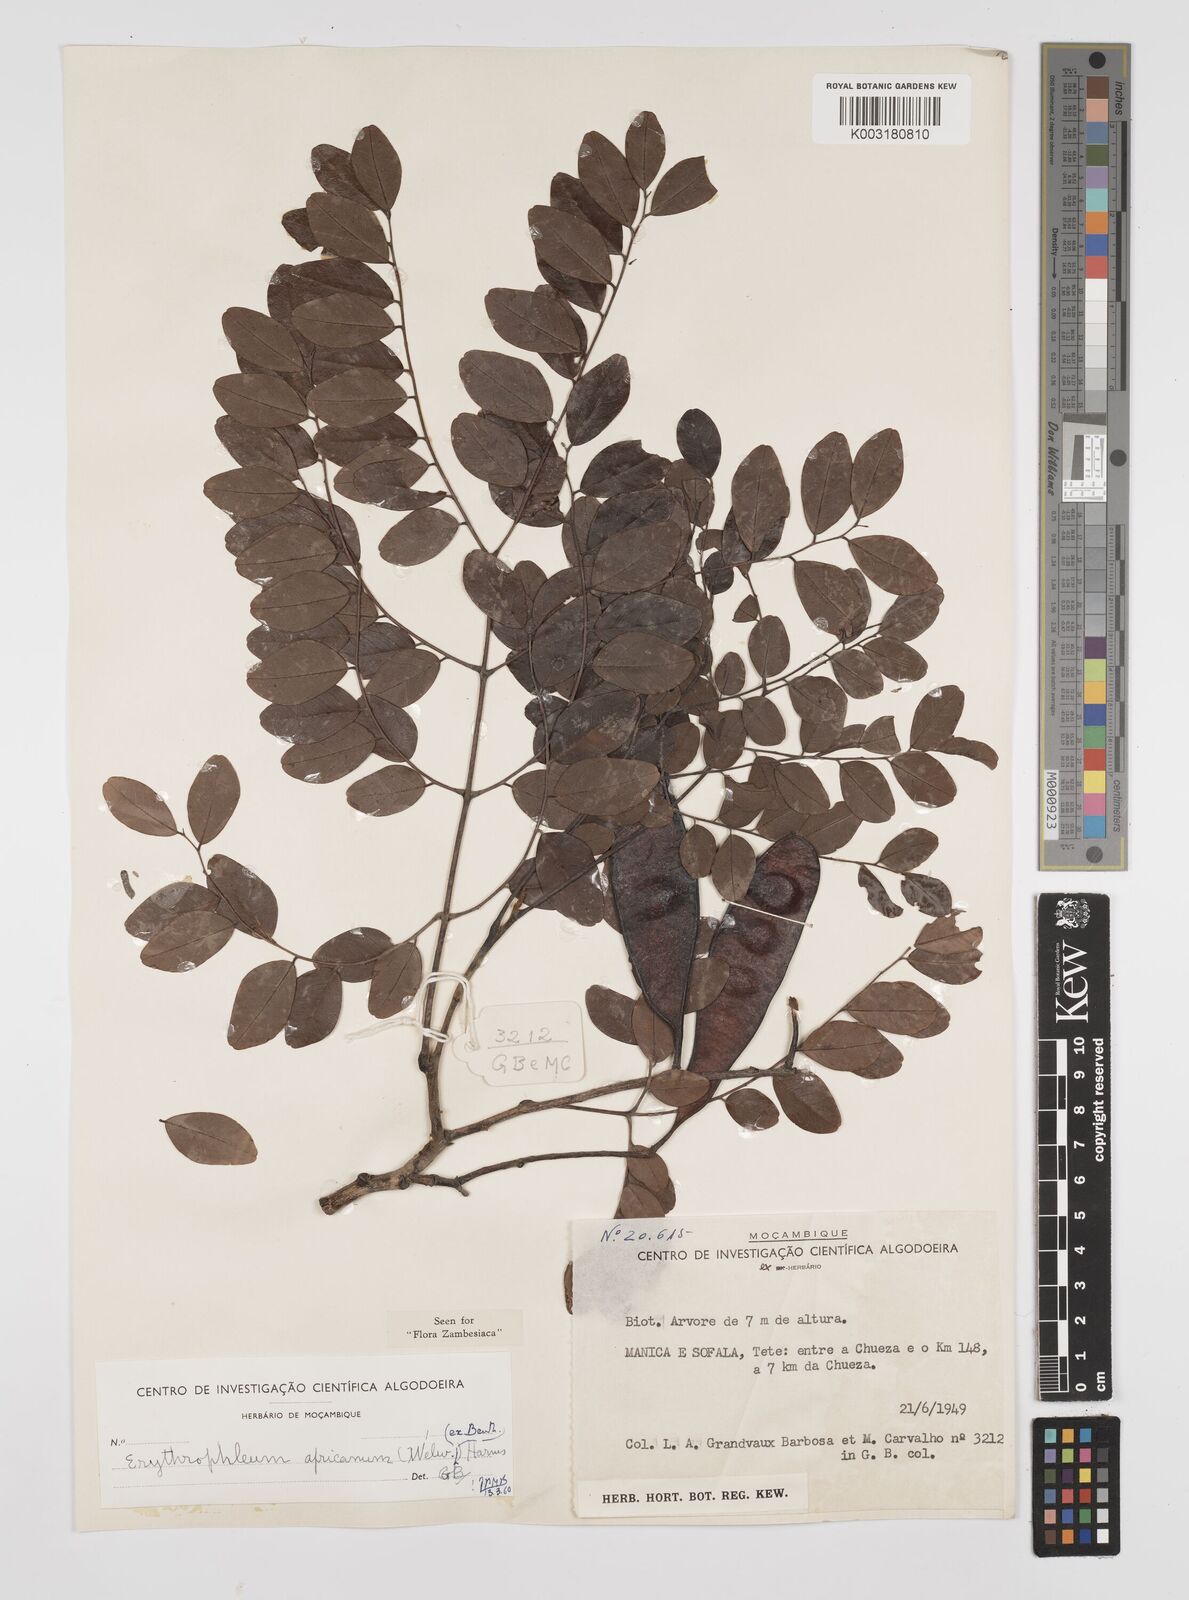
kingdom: Plantae
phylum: Tracheophyta
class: Magnoliopsida
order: Fabales
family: Fabaceae
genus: Peltophorum
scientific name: Peltophorum africanum
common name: African black wattle
